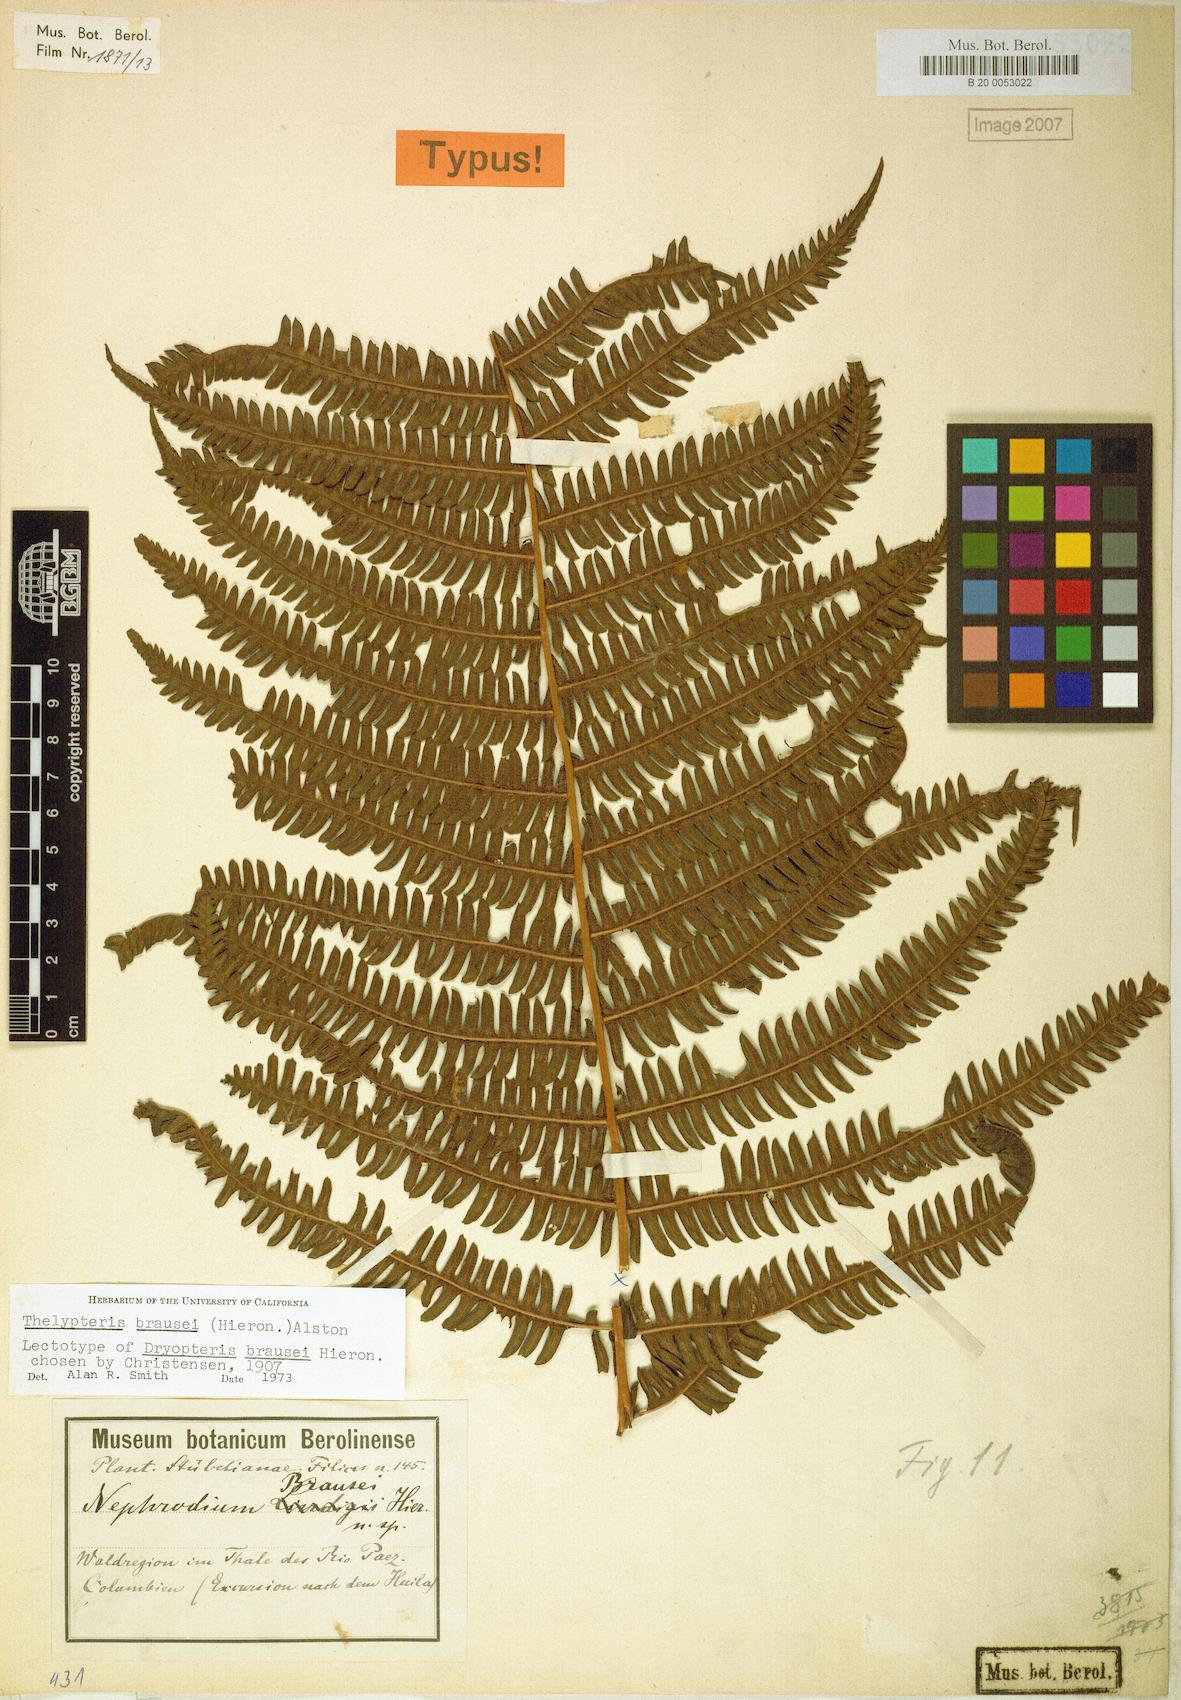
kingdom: Plantae
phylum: Tracheophyta
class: Polypodiopsida
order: Polypodiales
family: Thelypteridaceae
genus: Amauropelta
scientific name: Amauropelta brausei
